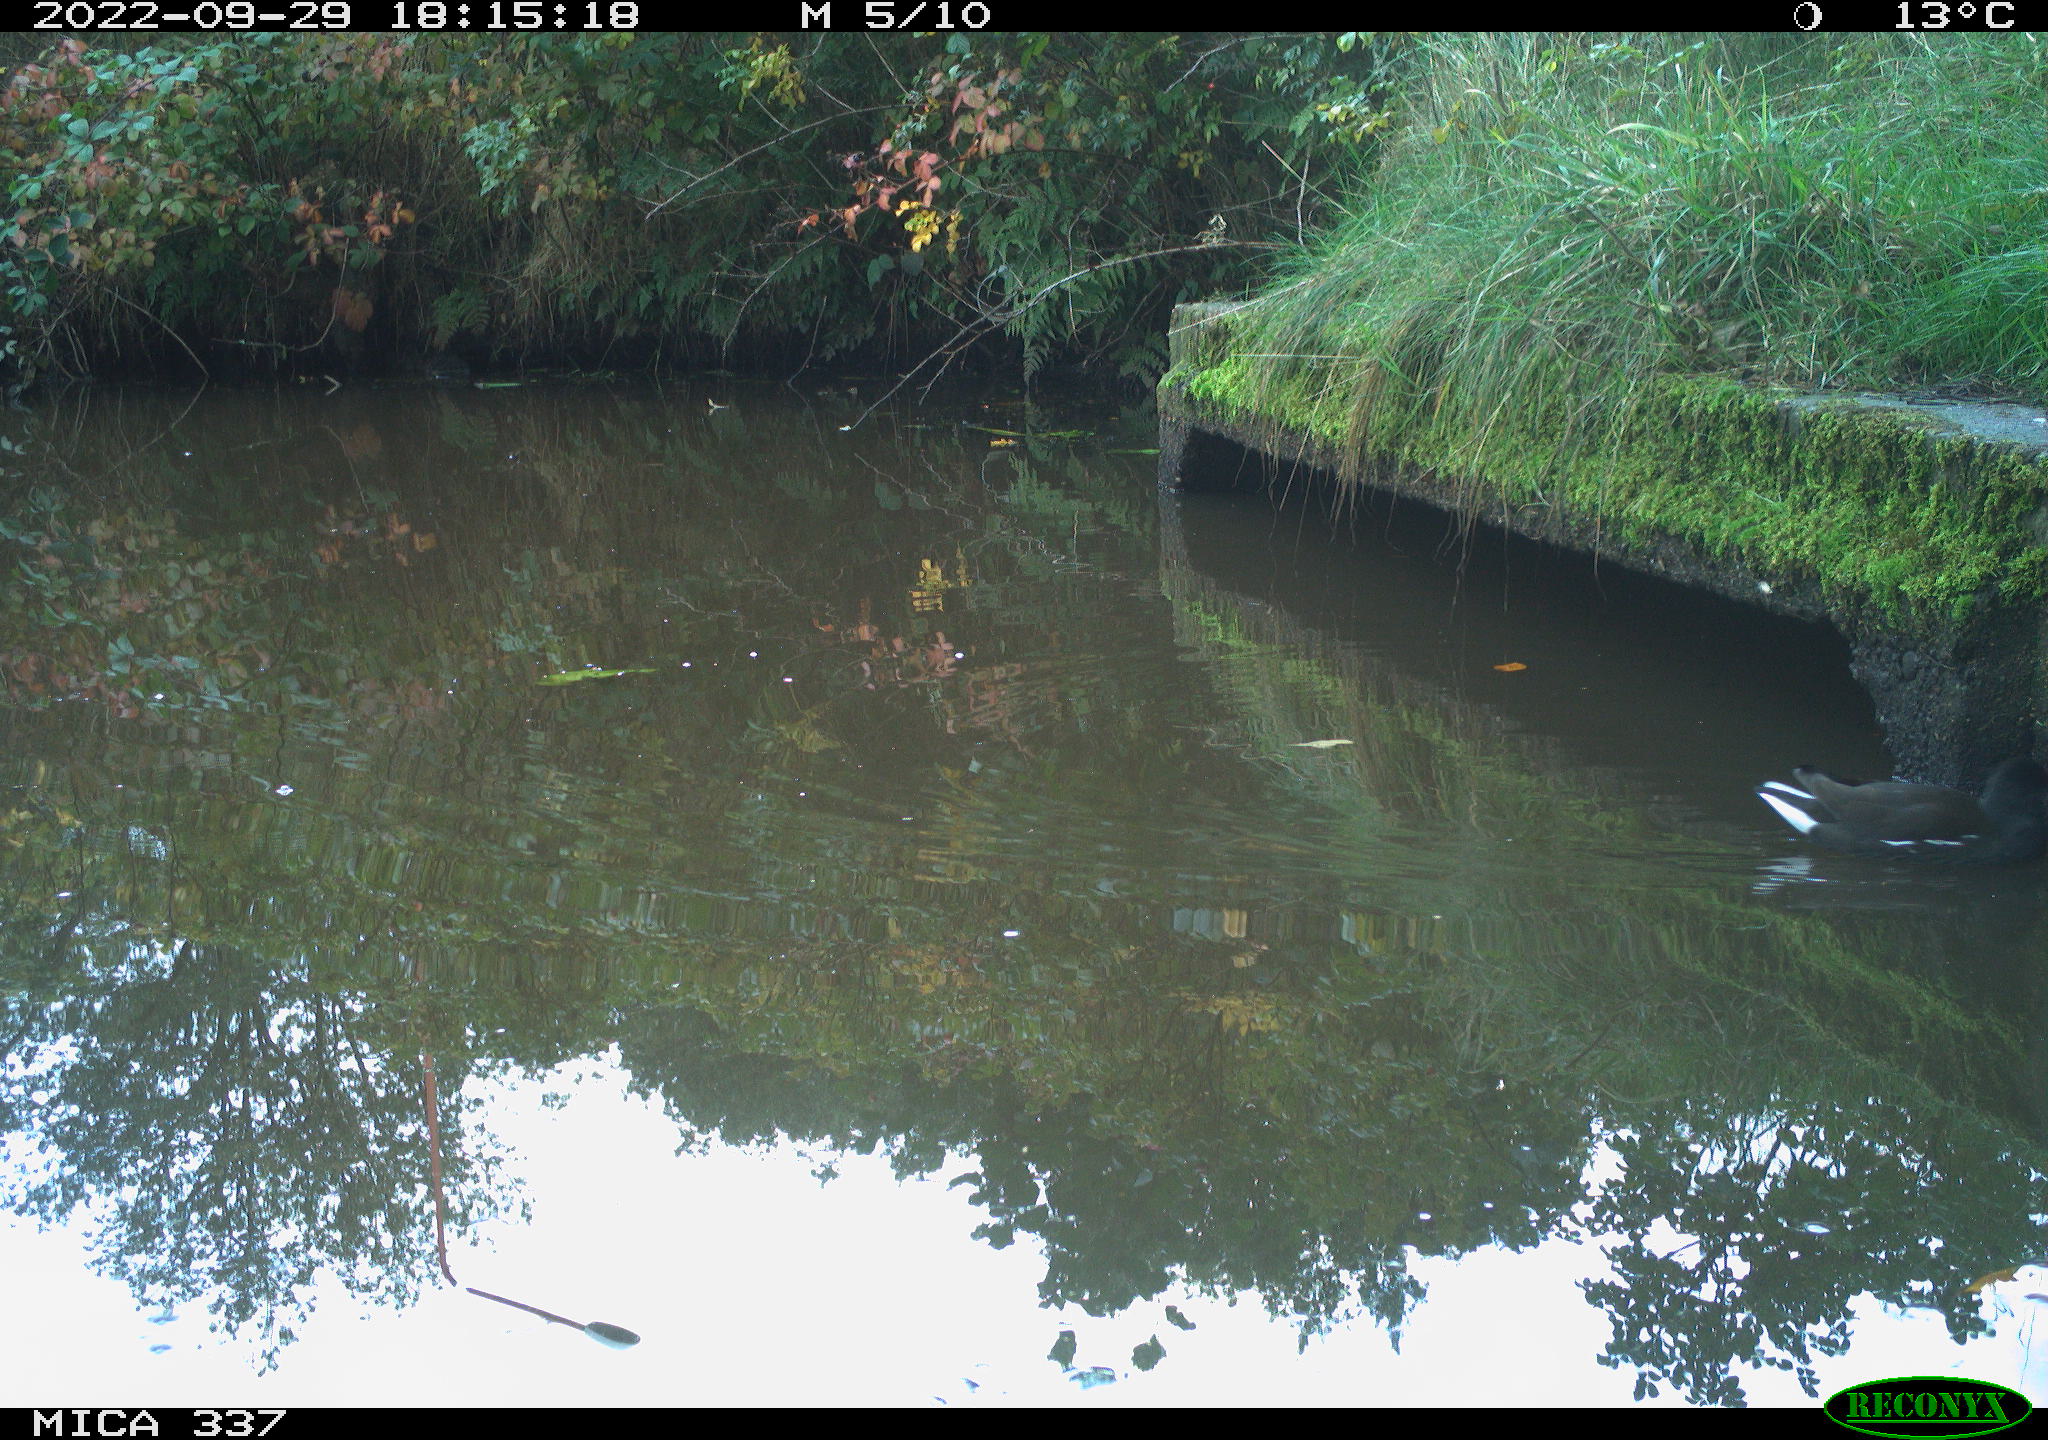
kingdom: Animalia
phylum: Chordata
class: Aves
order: Gruiformes
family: Rallidae
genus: Gallinula
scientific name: Gallinula chloropus
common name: Common moorhen
